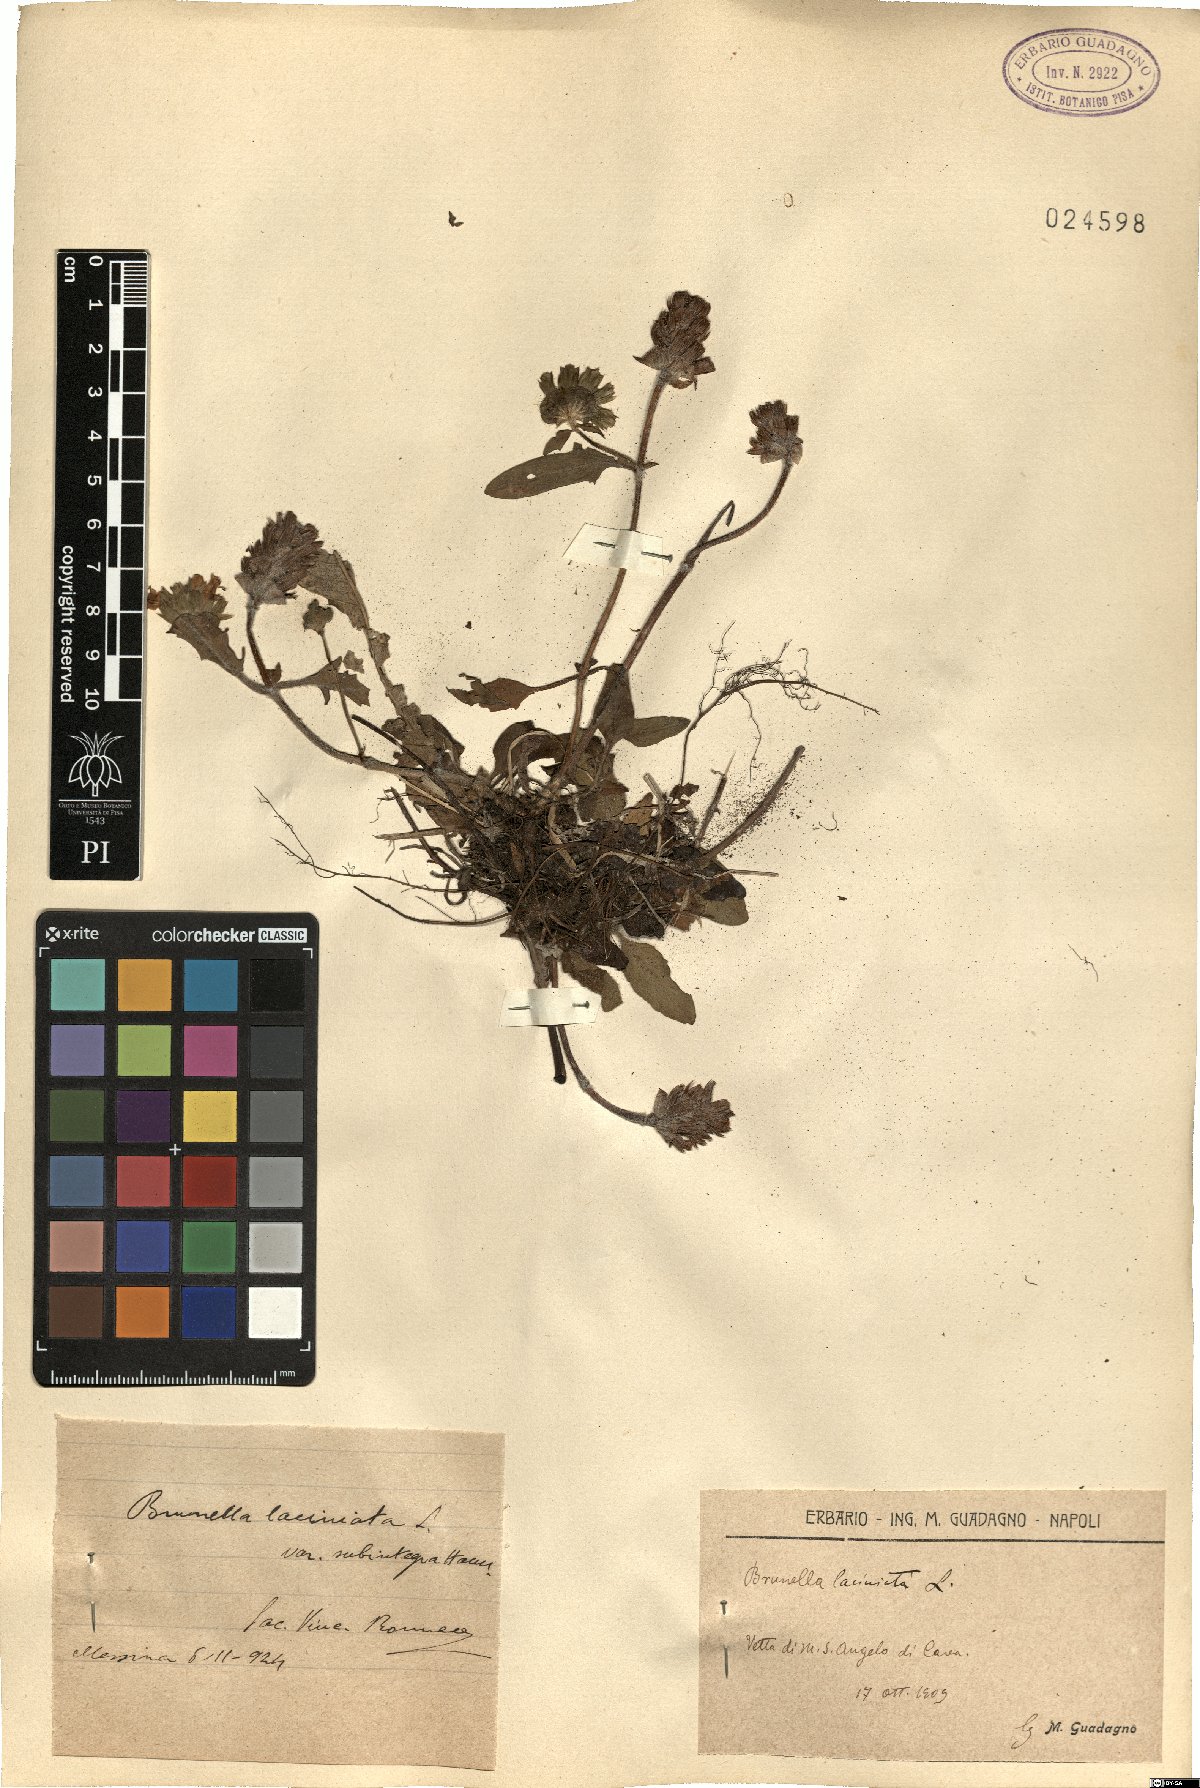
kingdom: Plantae
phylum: Tracheophyta
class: Magnoliopsida
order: Lamiales
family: Lamiaceae
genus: Prunella
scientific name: Prunella laciniata
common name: Cut-leaved selfheal
